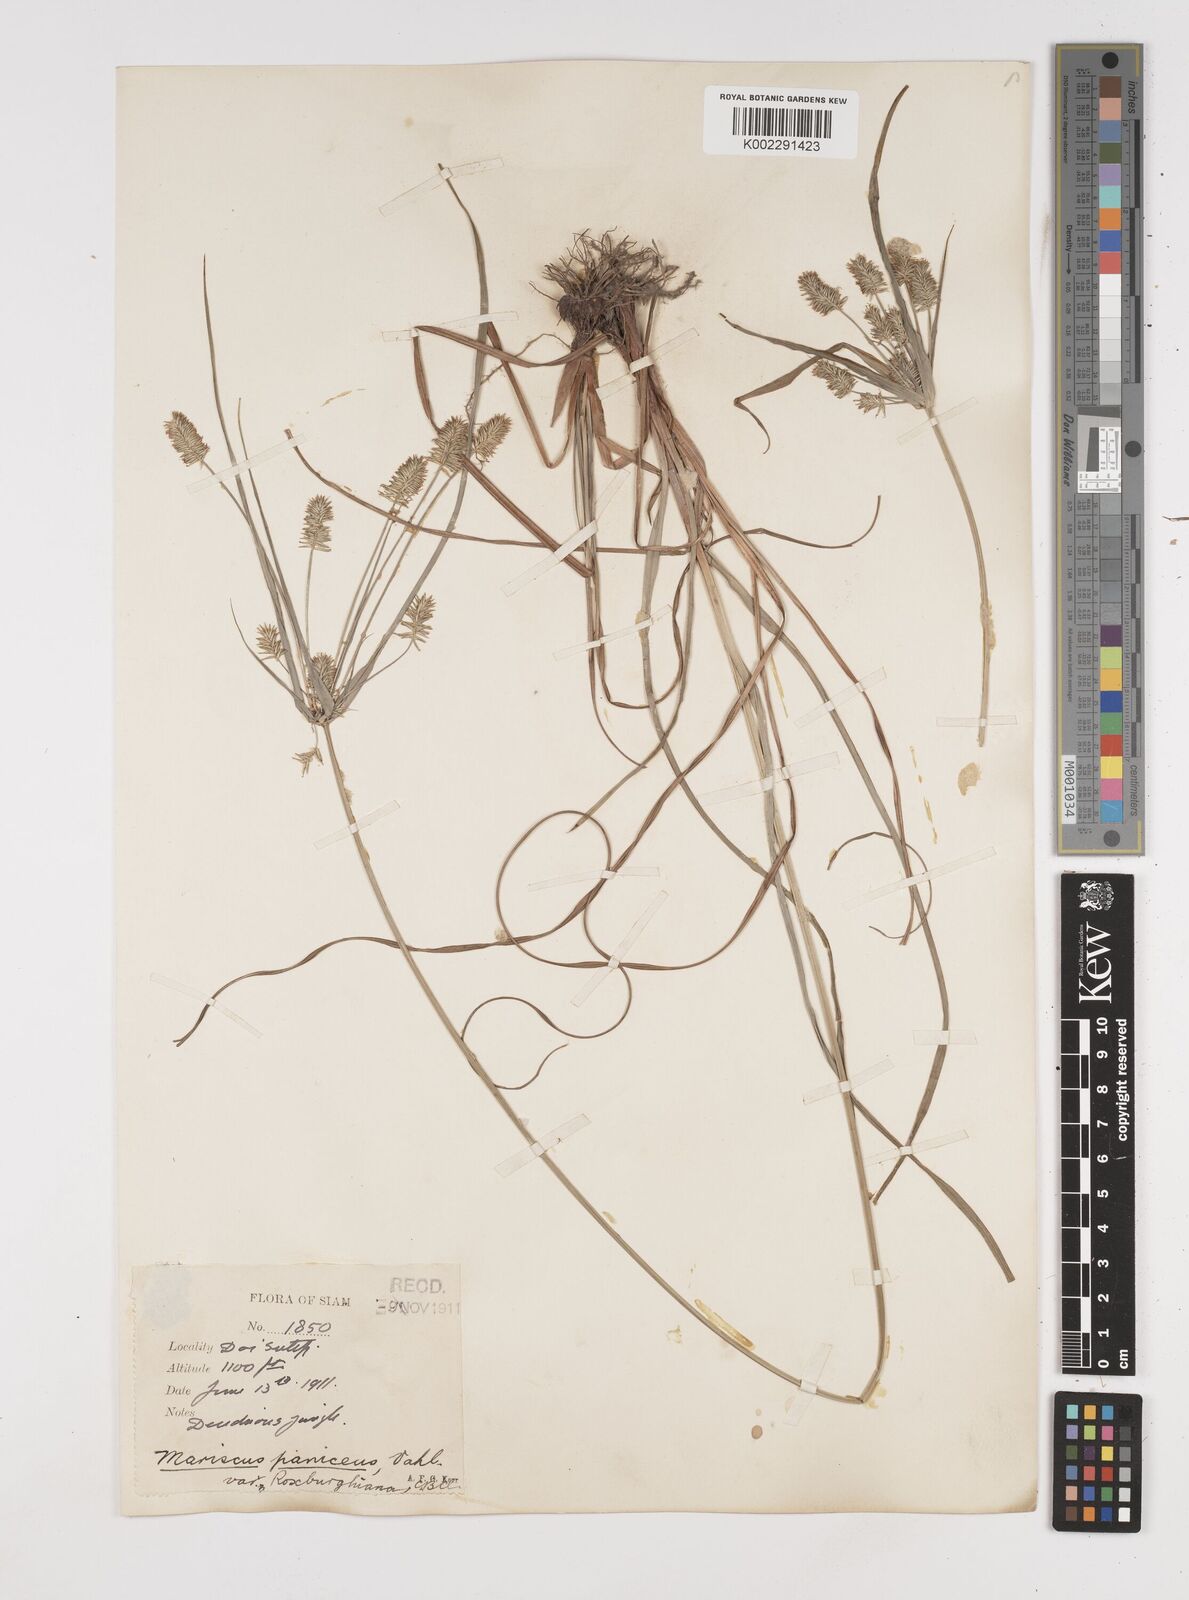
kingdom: Plantae
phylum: Tracheophyta
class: Liliopsida
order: Poales
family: Cyperaceae
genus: Cyperus
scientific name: Cyperus cyperoides
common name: Pacific island flat sedge
